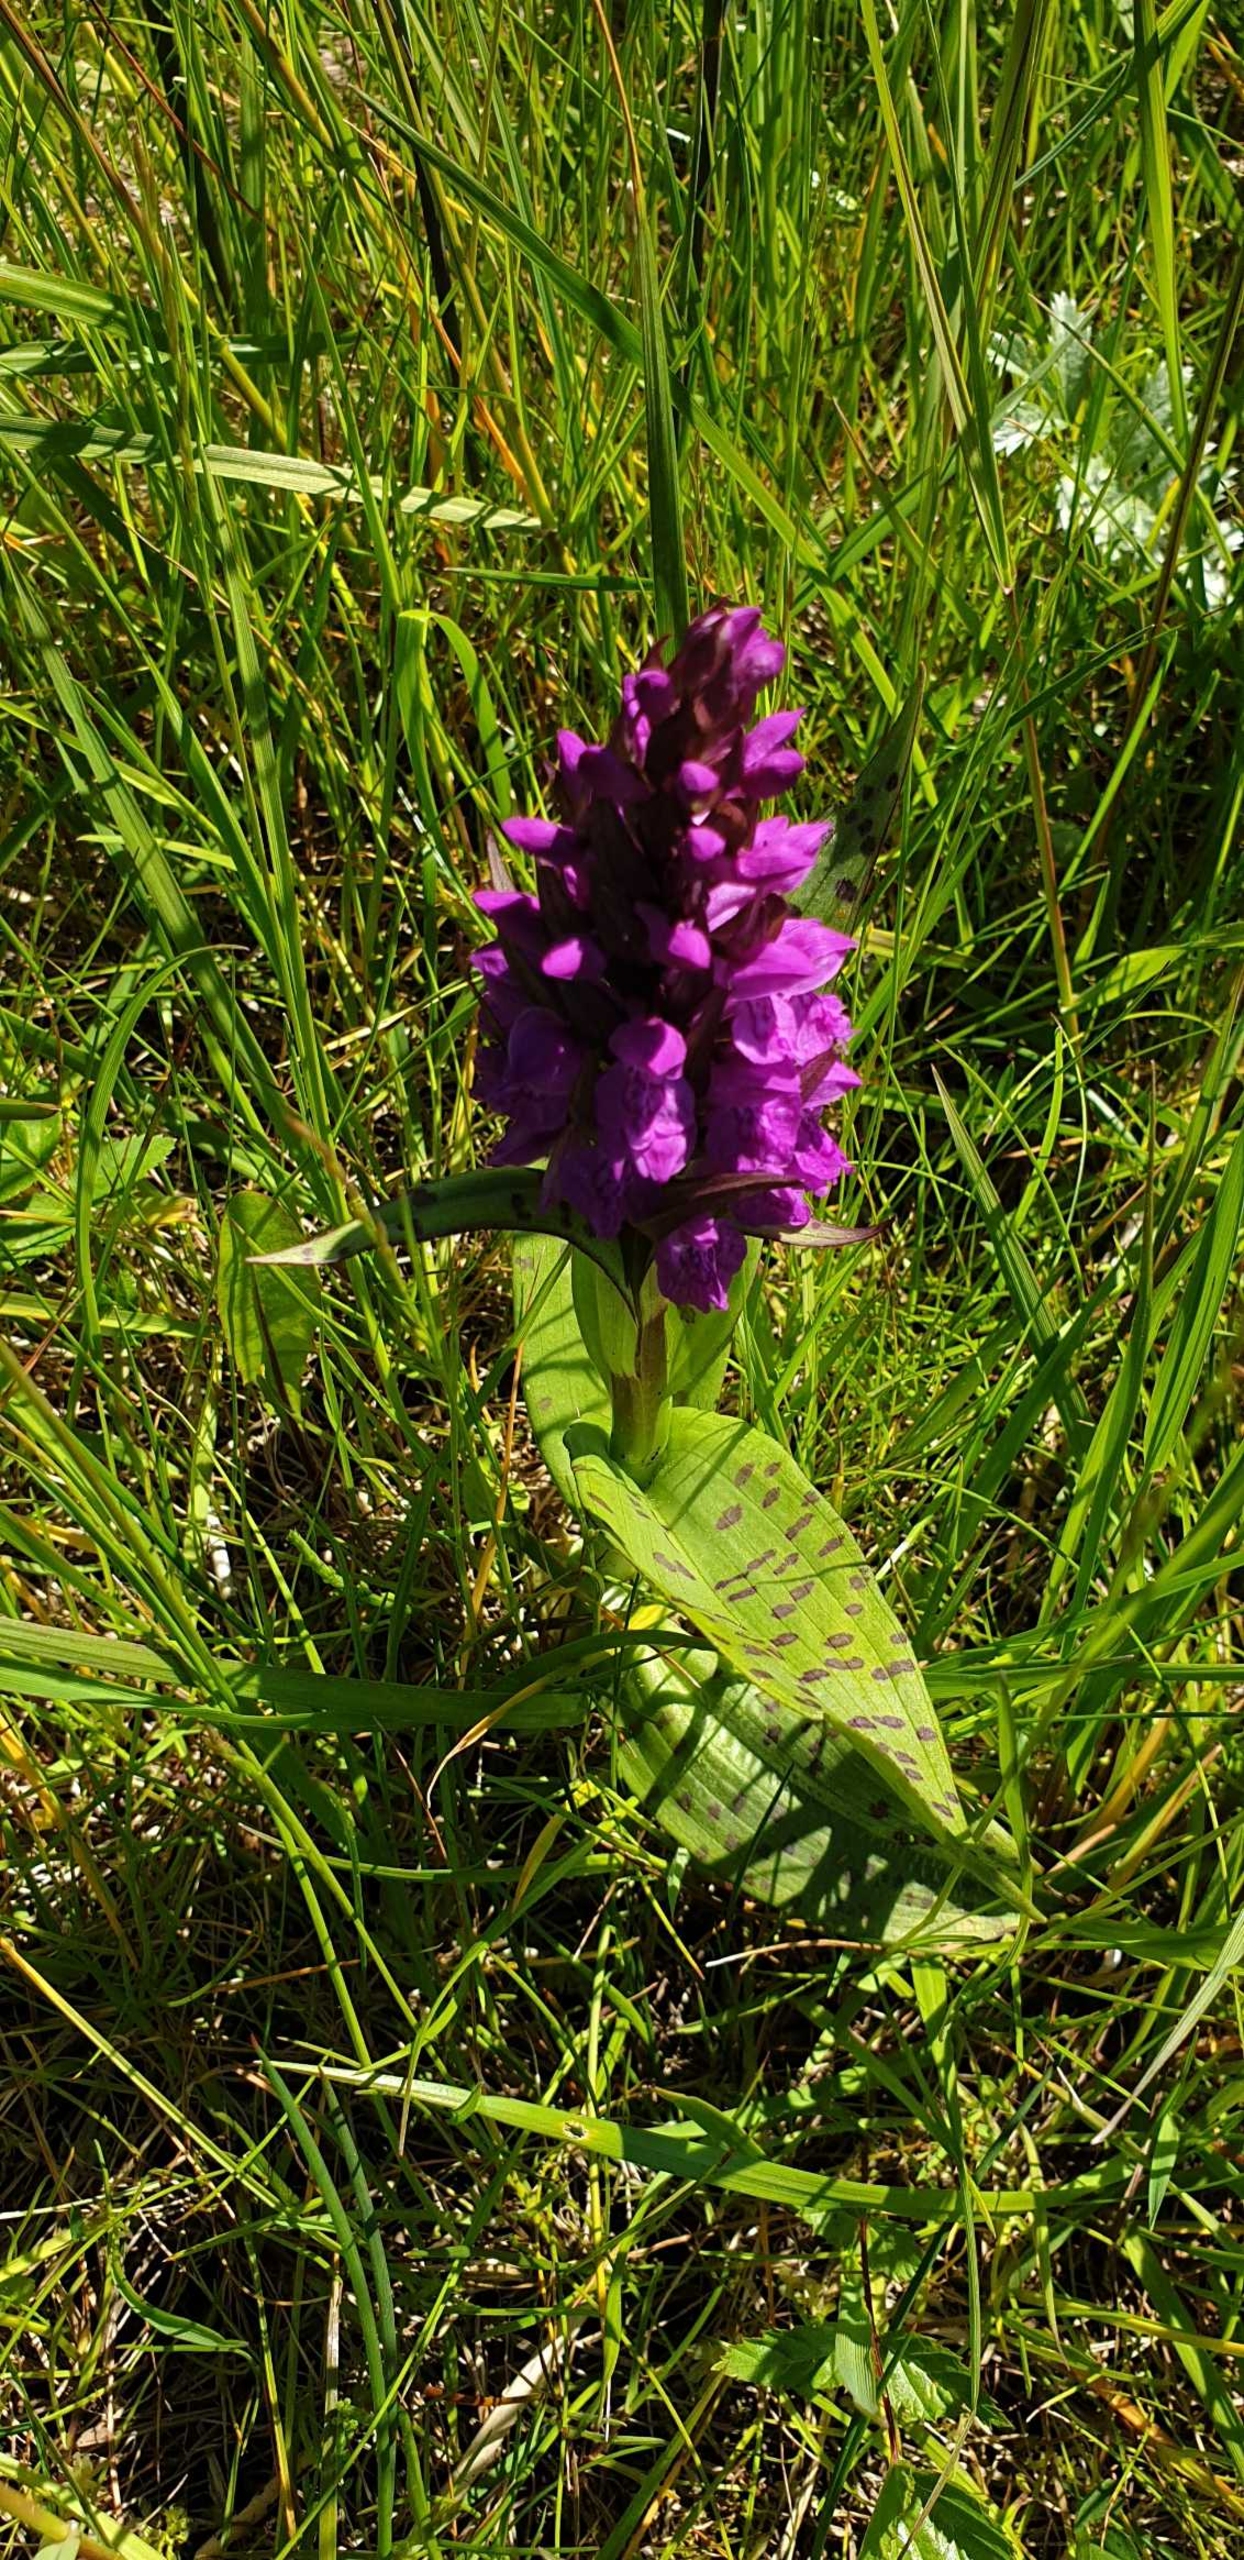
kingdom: Plantae
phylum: Tracheophyta
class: Liliopsida
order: Asparagales
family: Orchidaceae
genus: Dactylorhiza
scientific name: Dactylorhiza majalis
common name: Maj-gøgeurt
